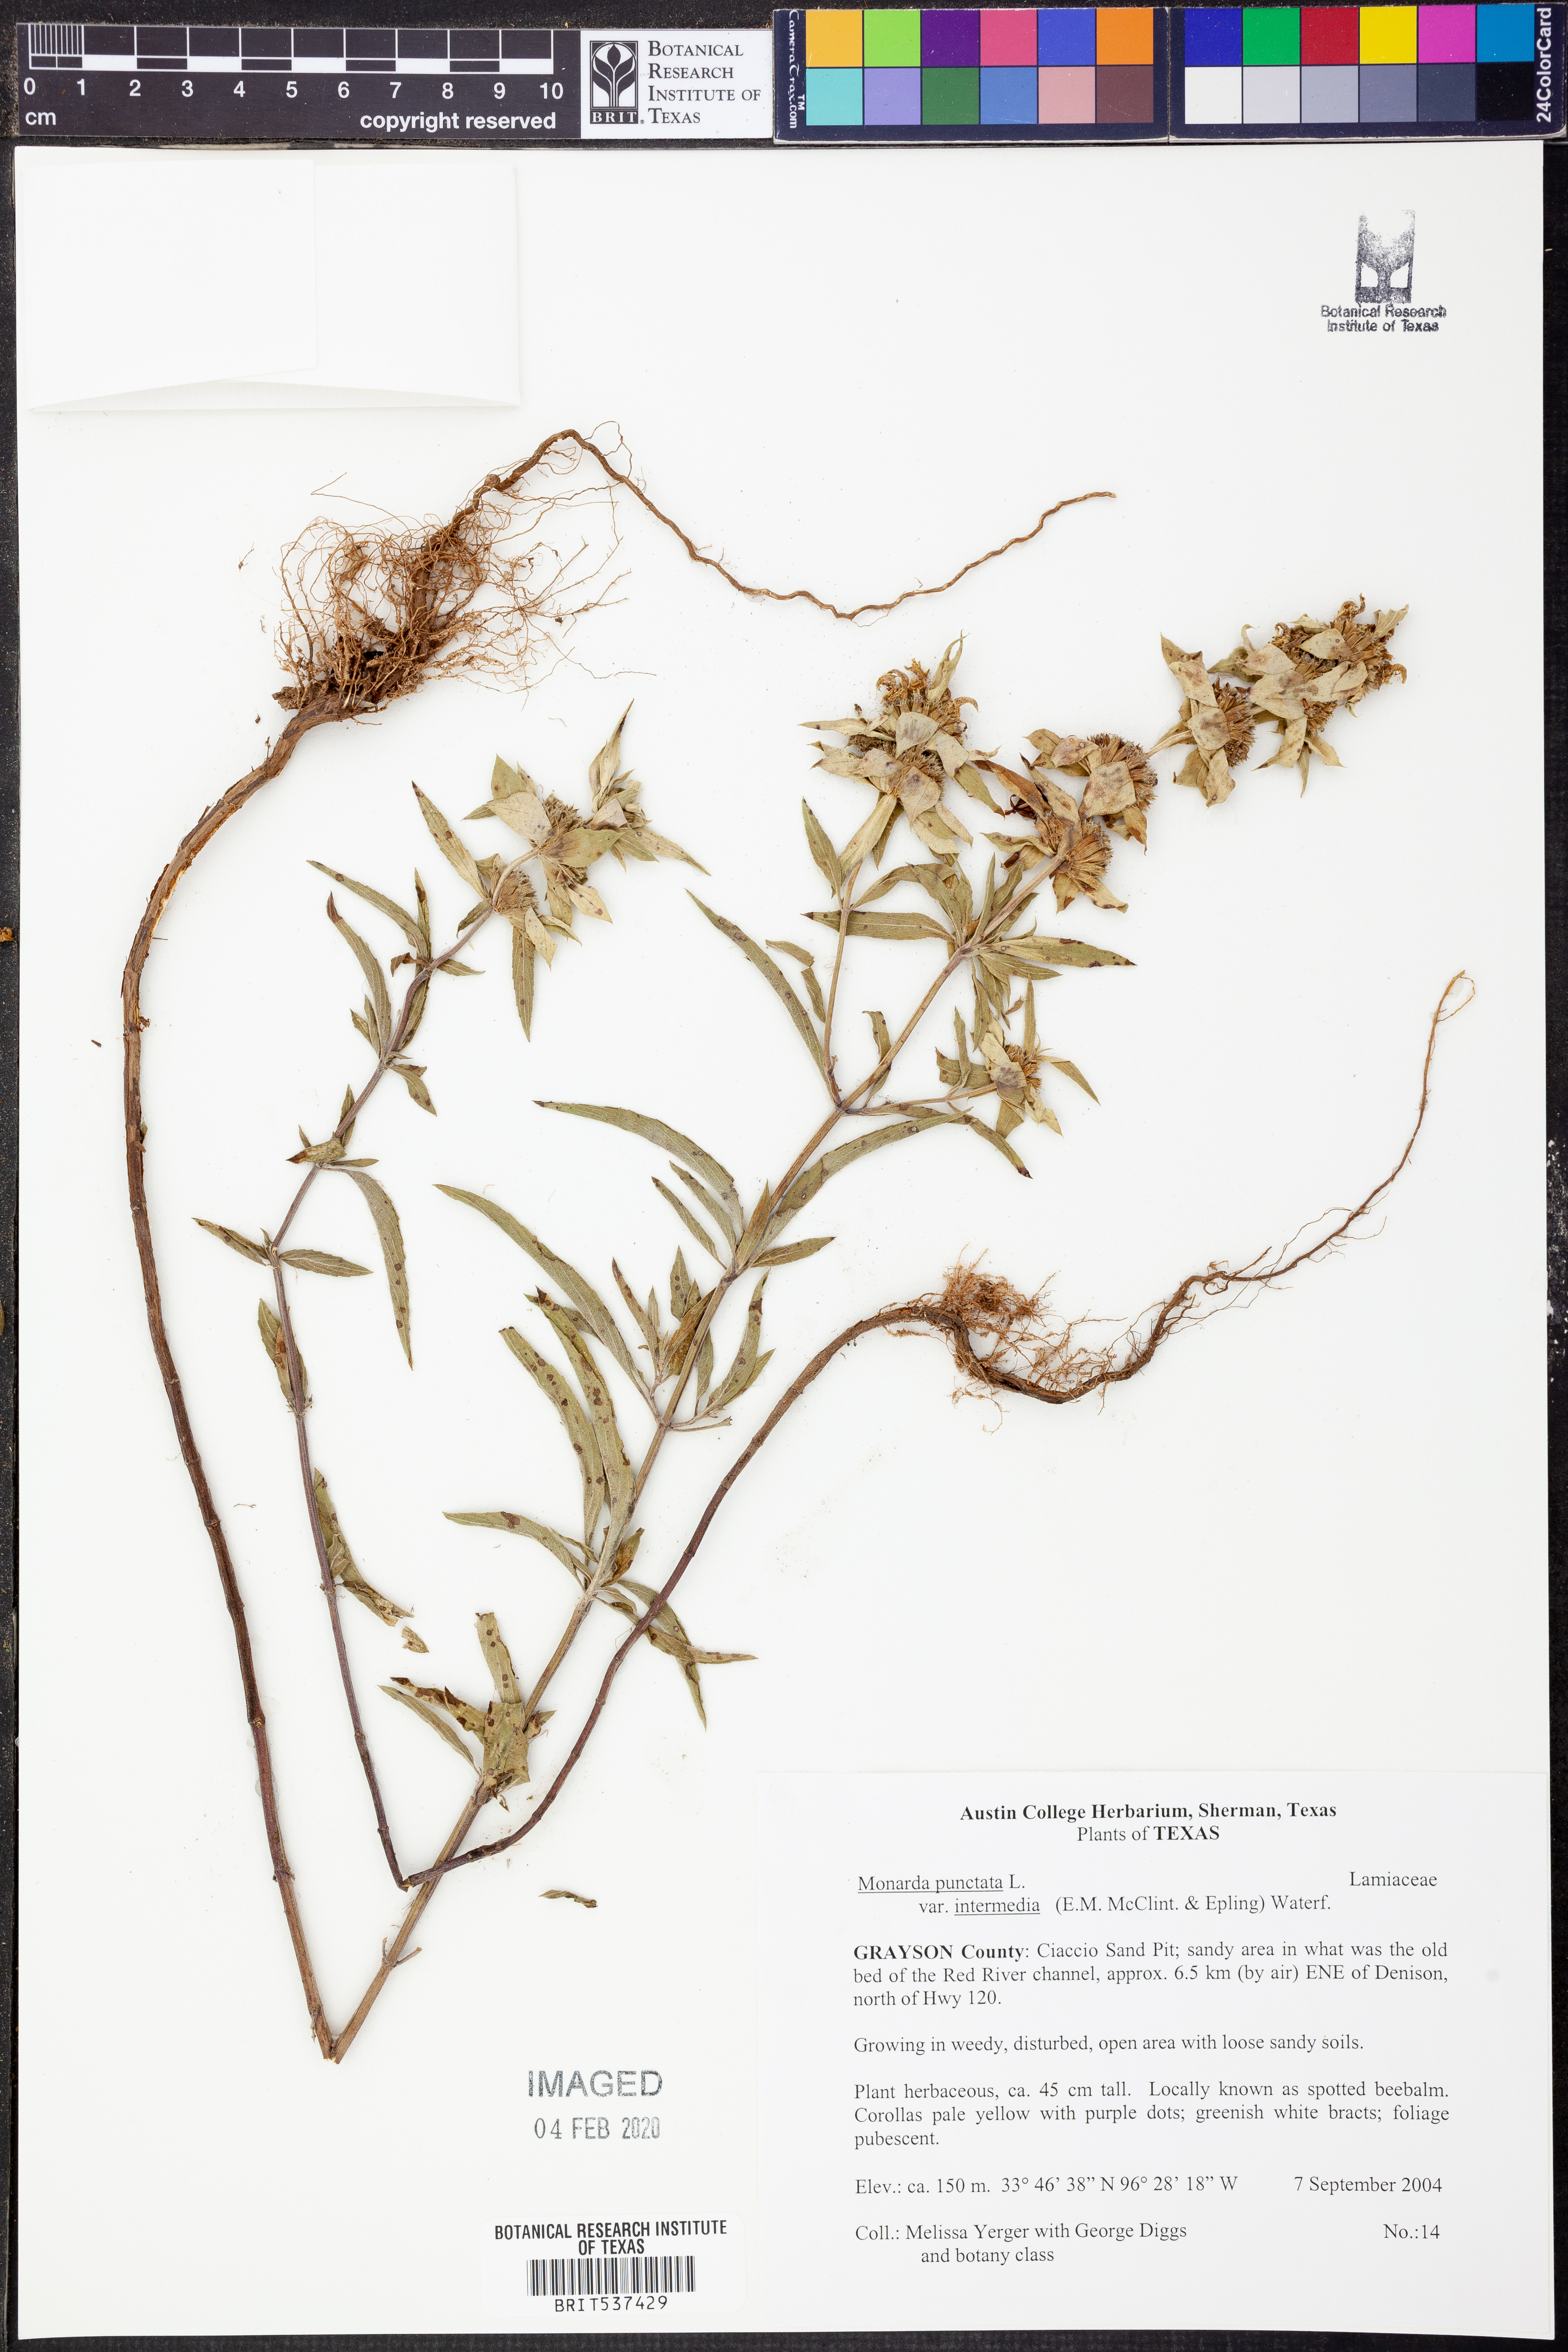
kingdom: Plantae
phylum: Tracheophyta
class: Magnoliopsida
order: Lamiales
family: Lamiaceae
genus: Monarda
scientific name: Monarda punctata
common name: Dotted monarda
